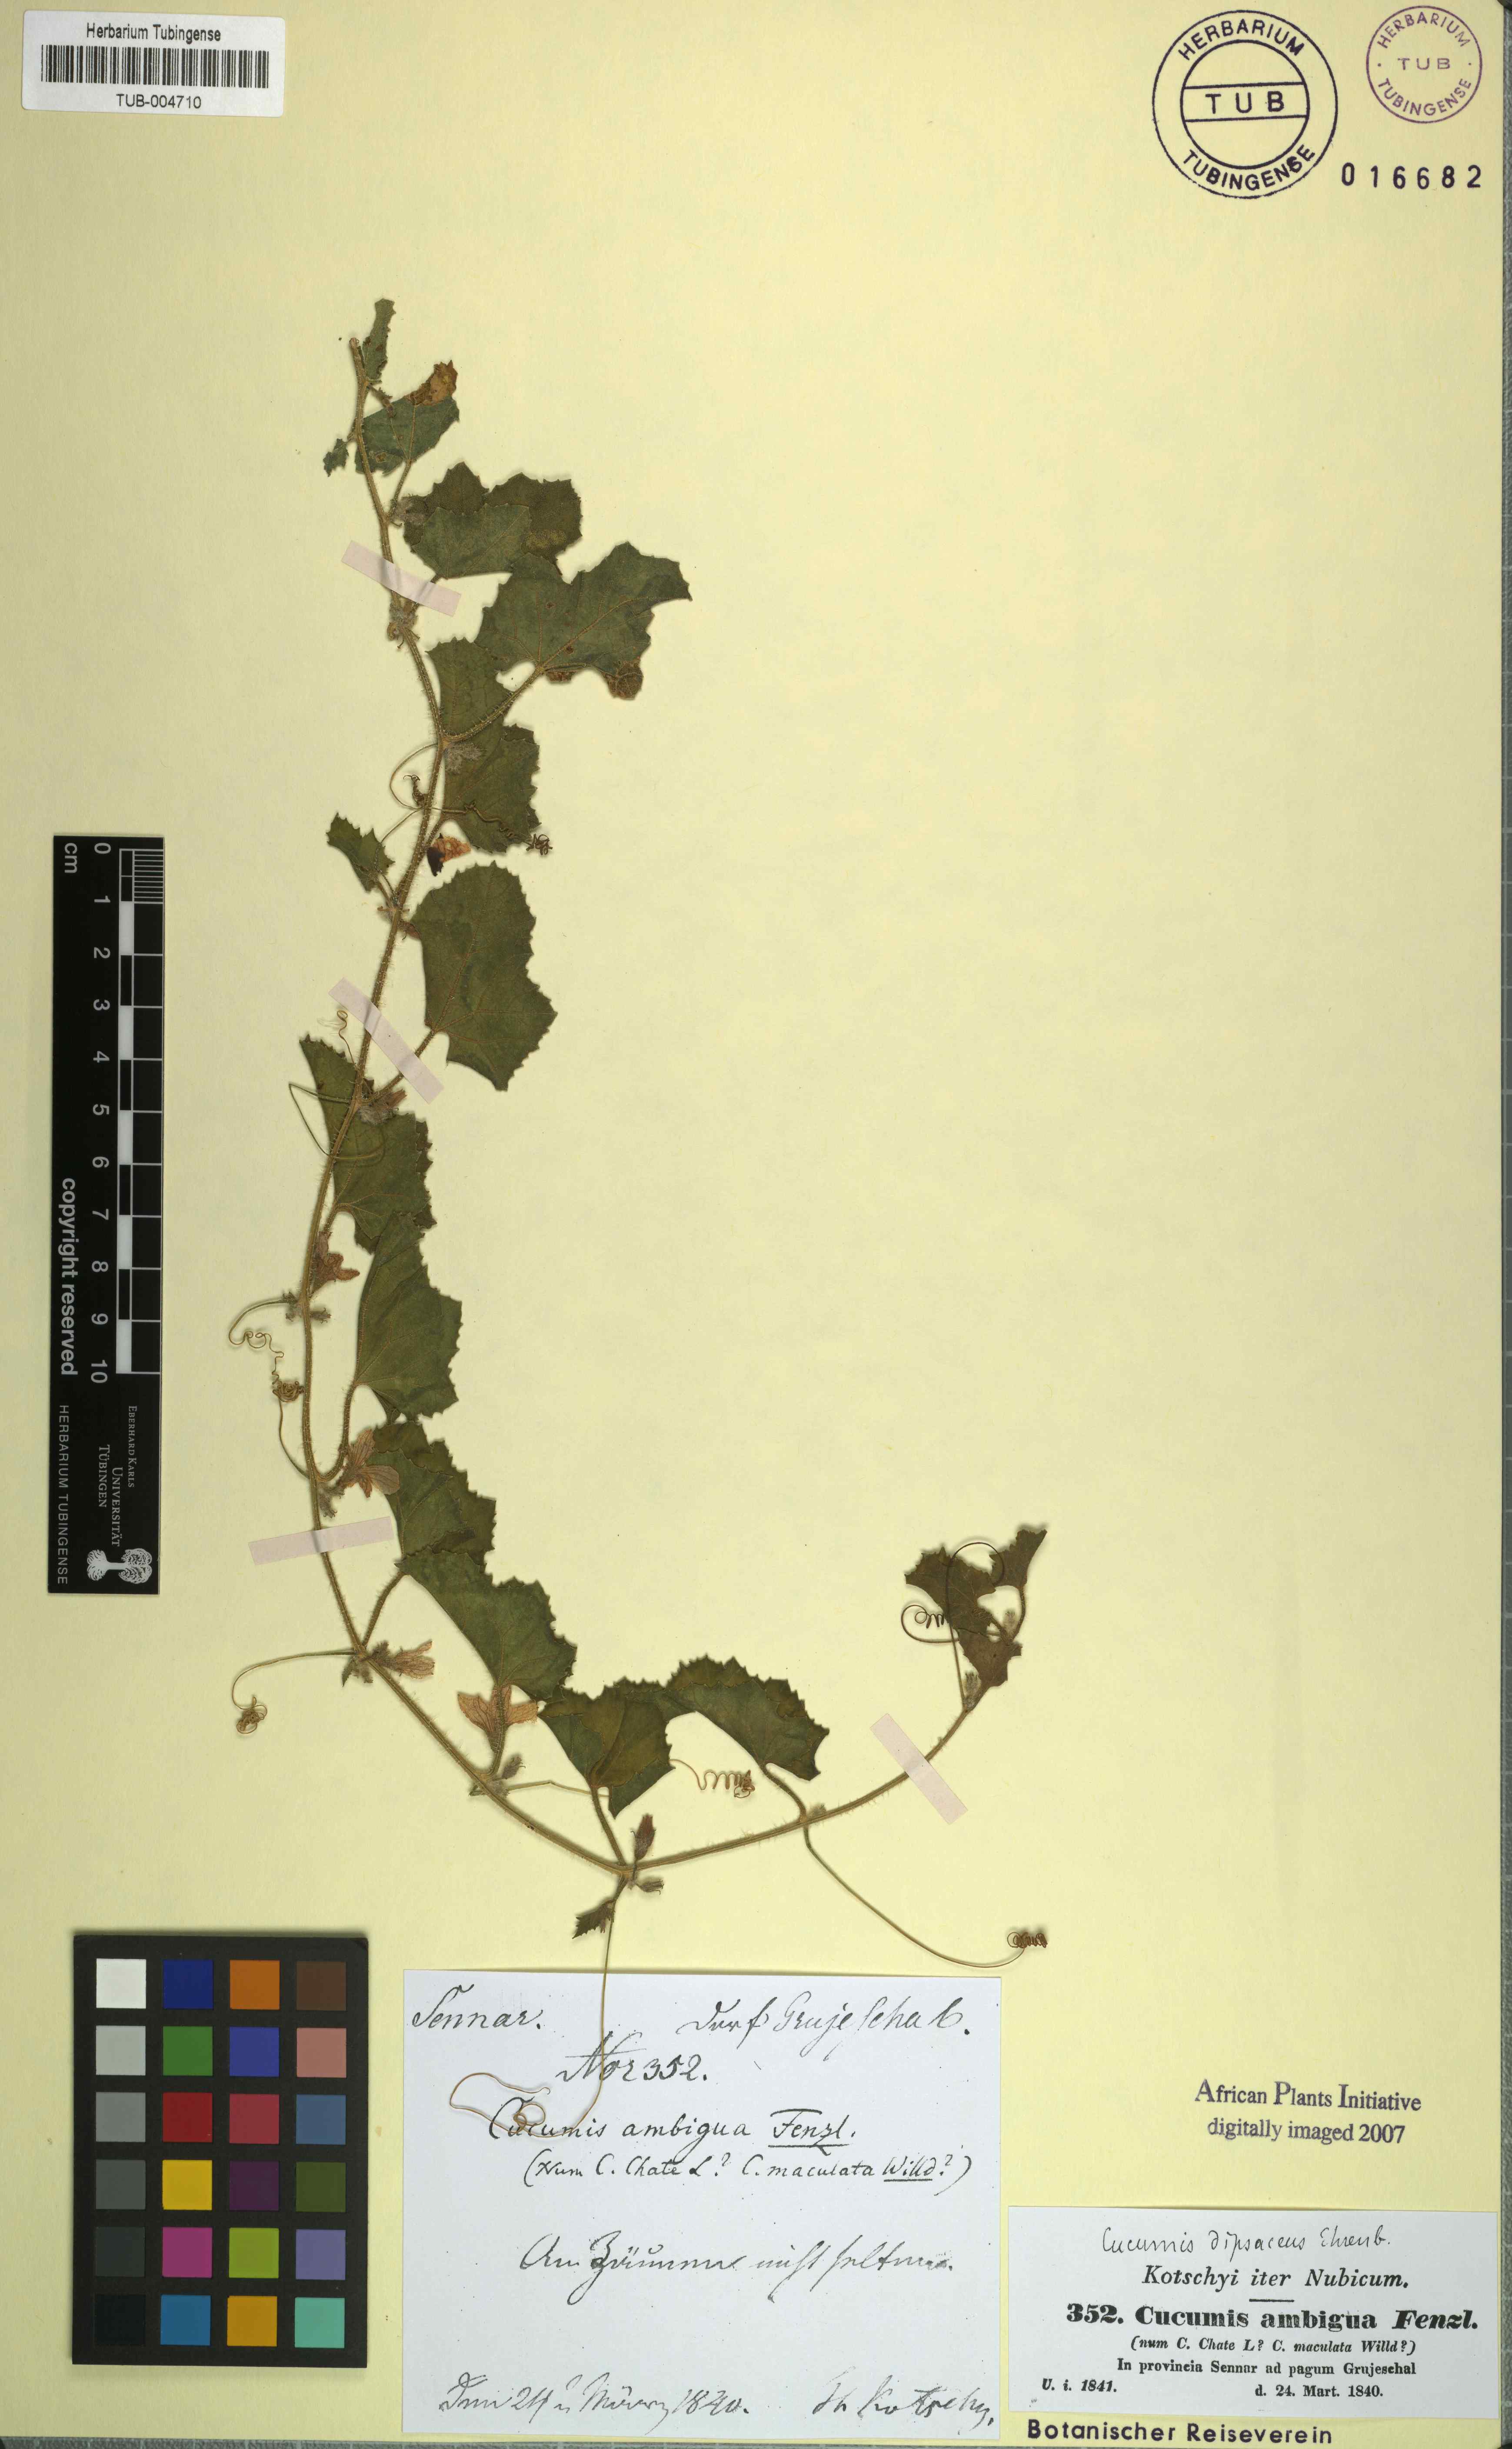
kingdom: Plantae
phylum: Tracheophyta
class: Magnoliopsida
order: Cucurbitales
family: Cucurbitaceae
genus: Cucumis
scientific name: Cucumis dipsaceus
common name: Hedgehog gourd
